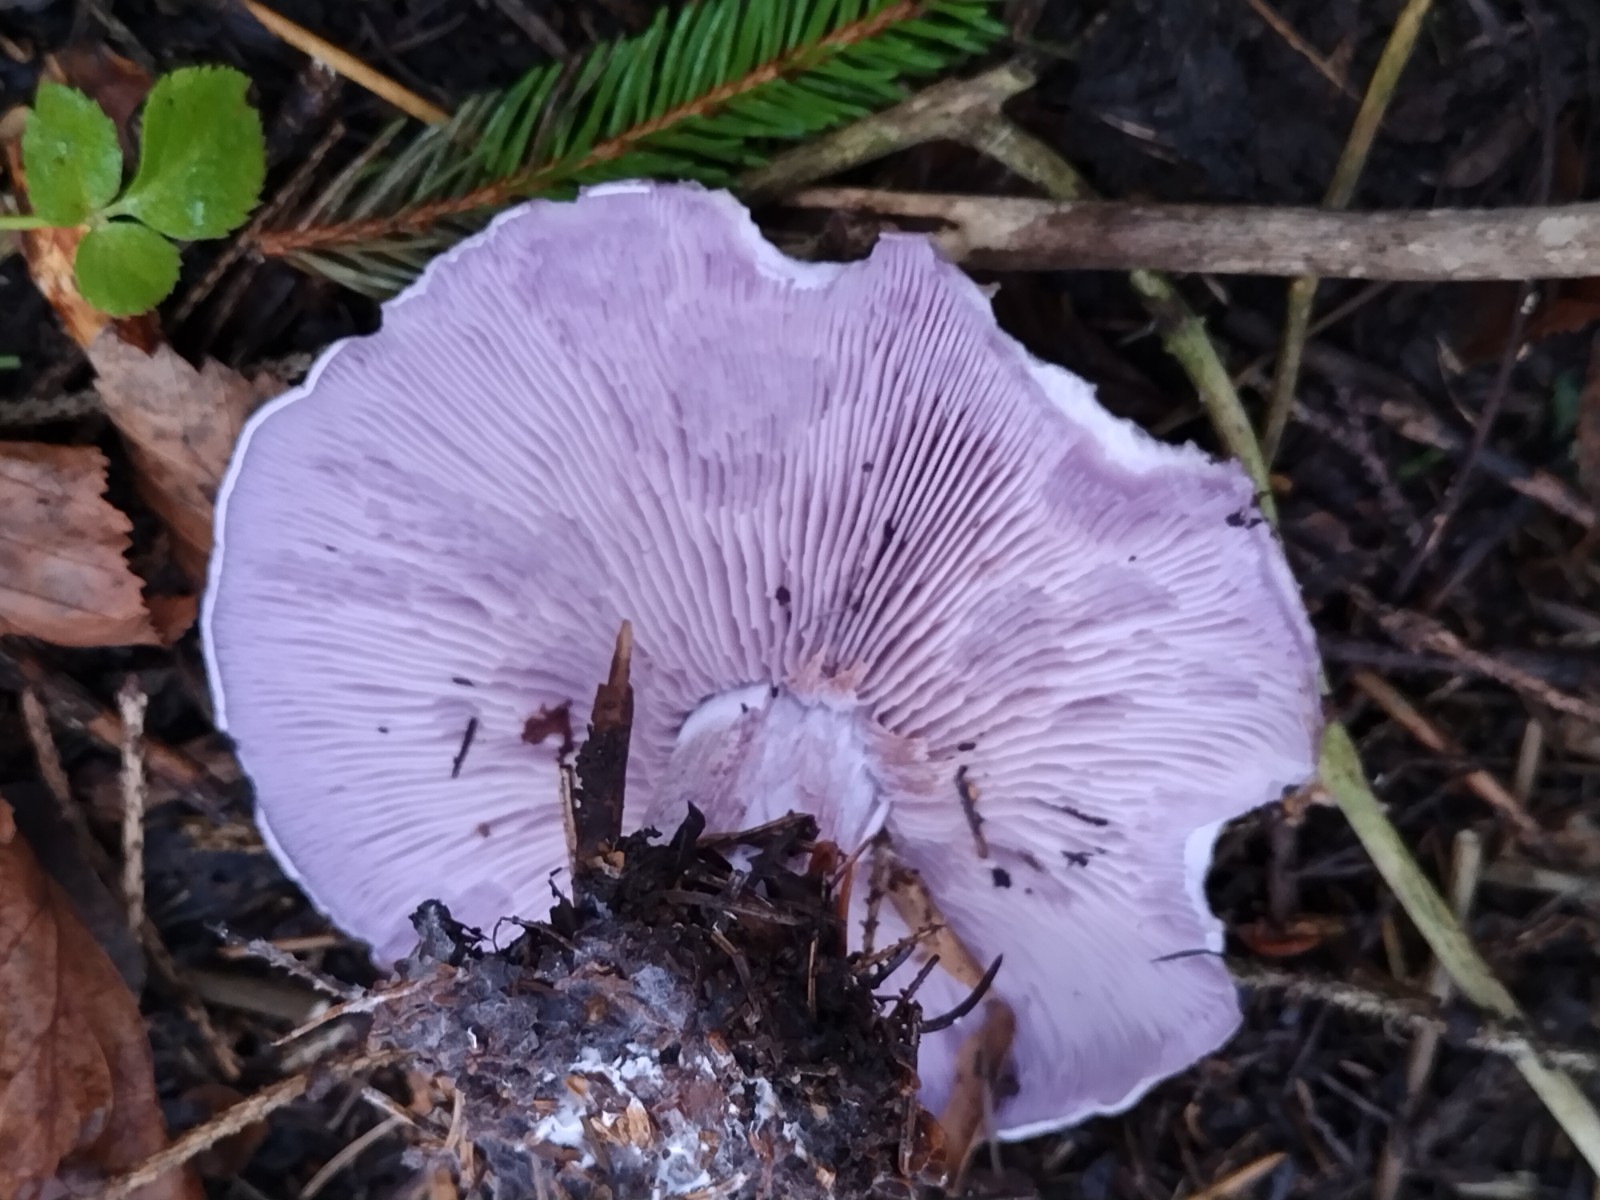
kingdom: Fungi
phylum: Basidiomycota
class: Agaricomycetes
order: Agaricales
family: Tricholomataceae
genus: Lepista
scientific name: Lepista nuda
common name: violet hekseringshat
